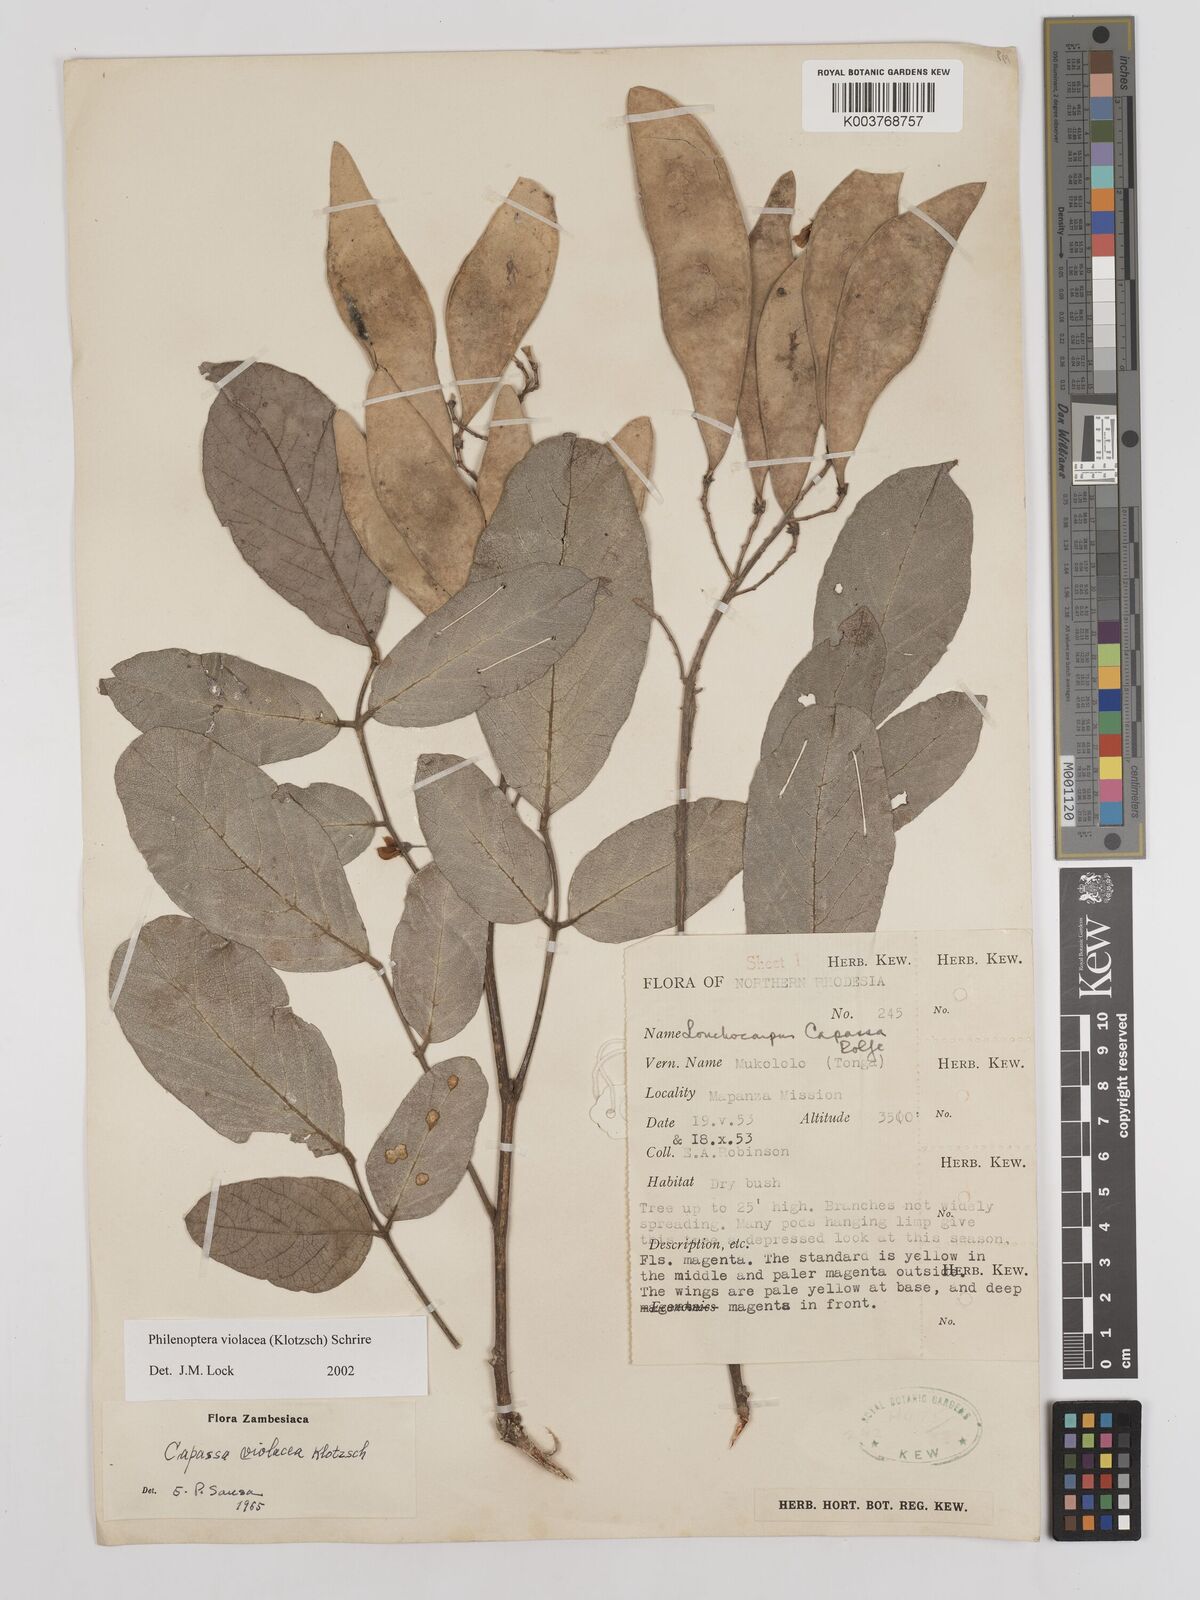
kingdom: Plantae
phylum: Tracheophyta
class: Magnoliopsida
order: Fabales
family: Fabaceae
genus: Philenoptera
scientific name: Philenoptera violacea
